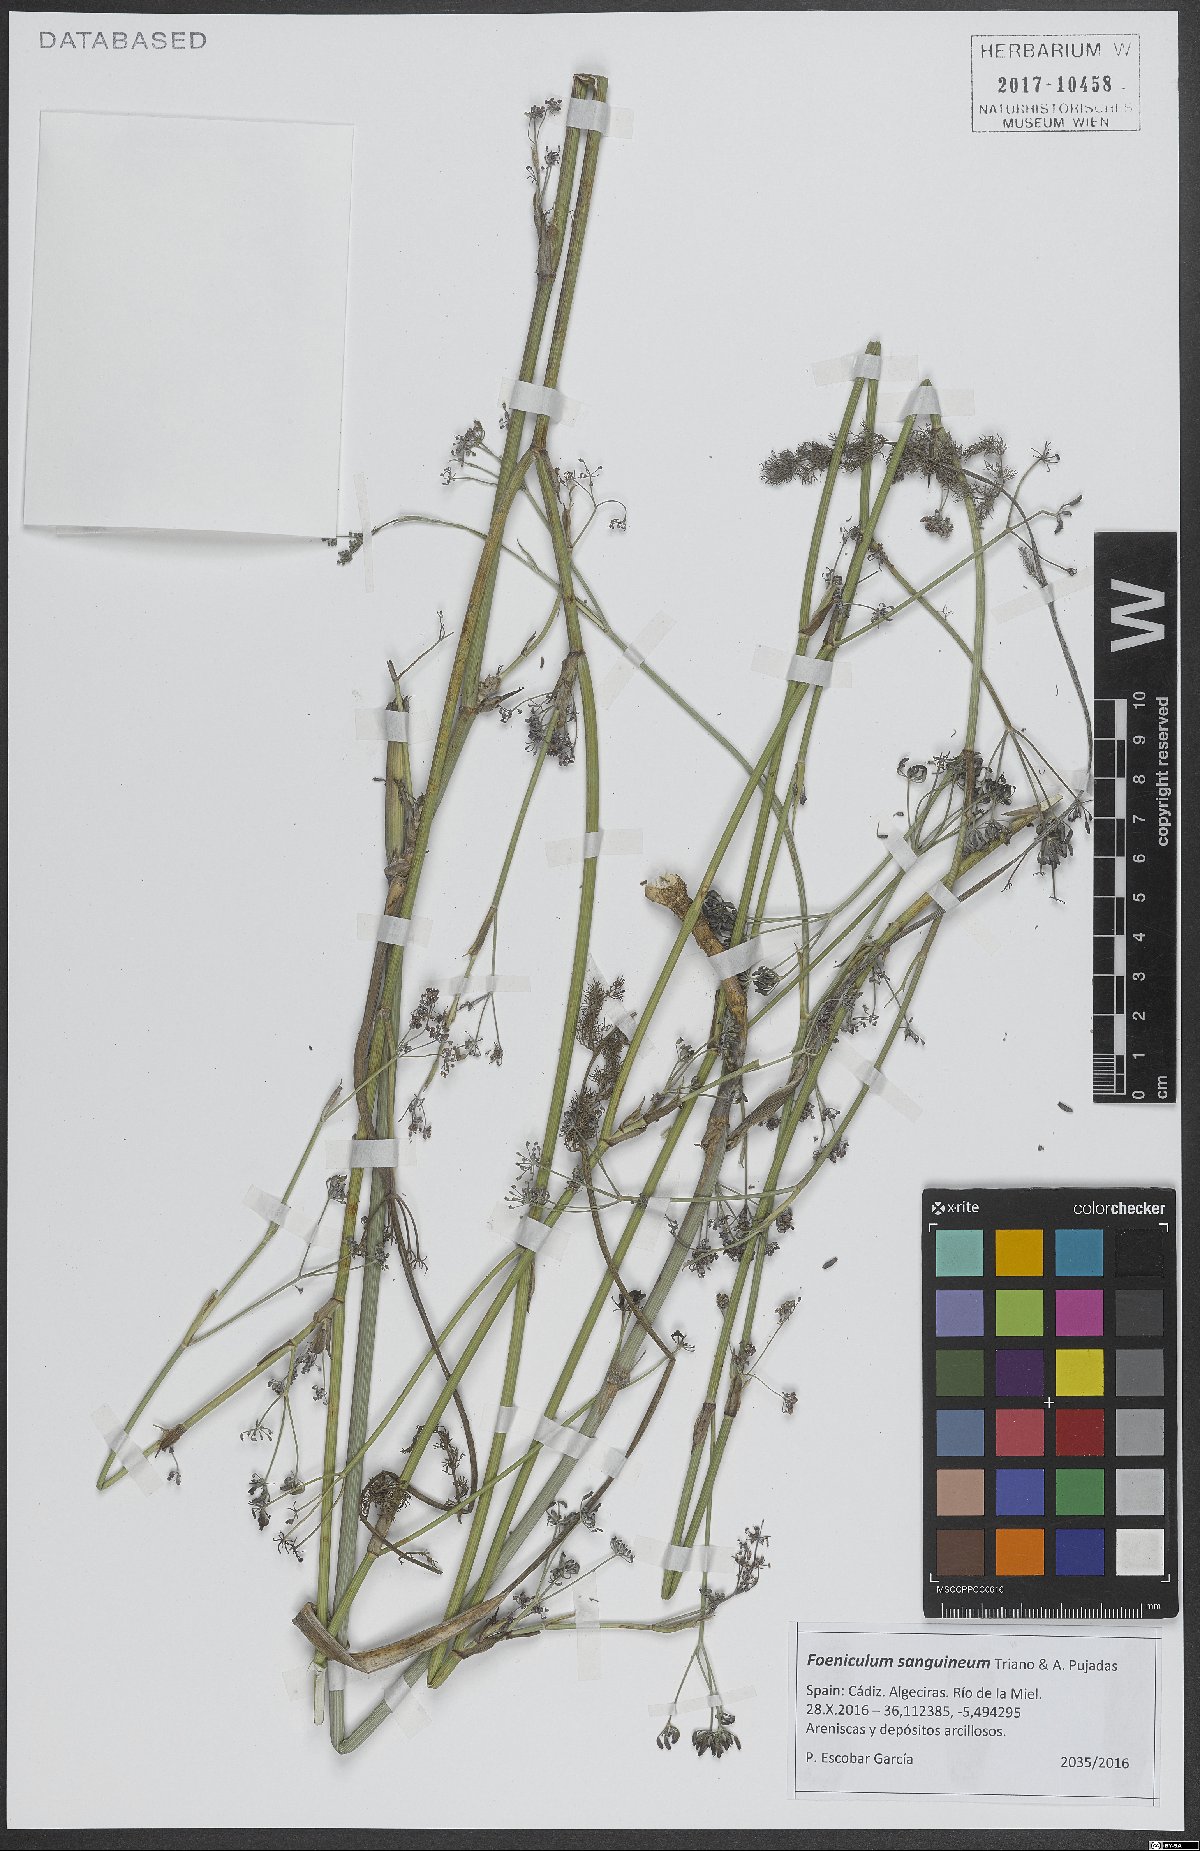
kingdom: Plantae
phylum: Tracheophyta
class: Magnoliopsida
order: Apiales
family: Apiaceae
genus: Anethum
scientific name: Anethum sanguineum
